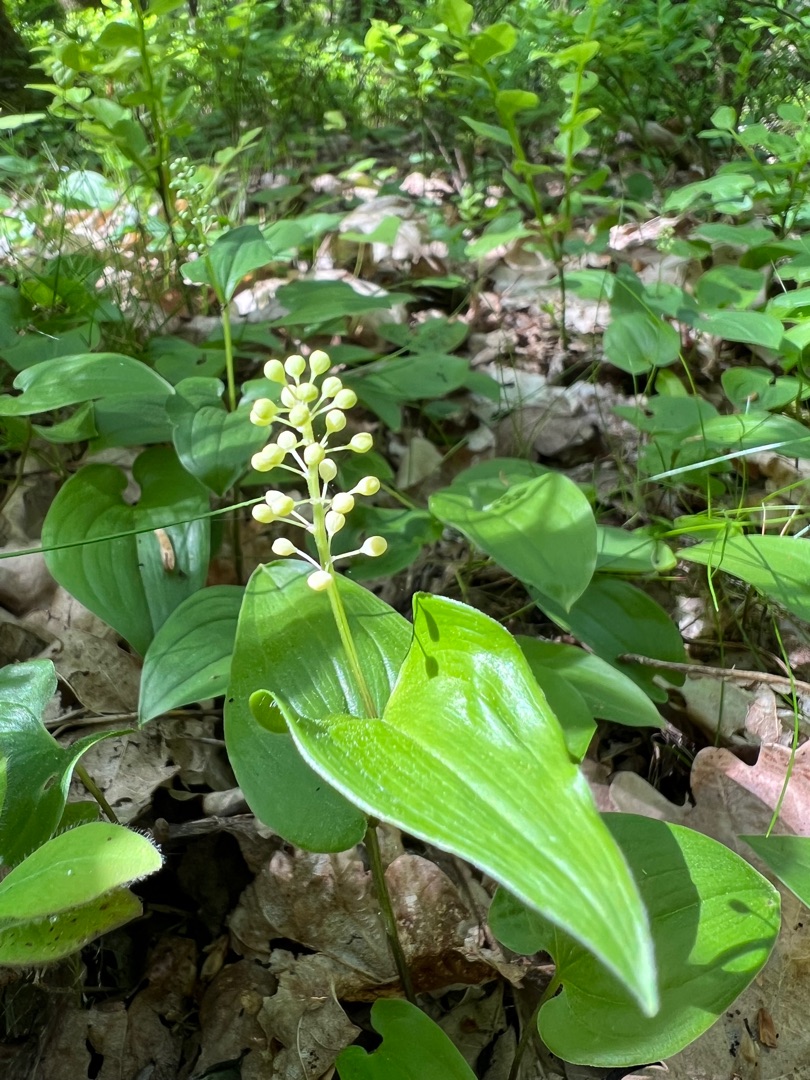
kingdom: Plantae
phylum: Tracheophyta
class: Liliopsida
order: Asparagales
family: Asparagaceae
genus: Maianthemum
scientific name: Maianthemum bifolium
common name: Majblomst
